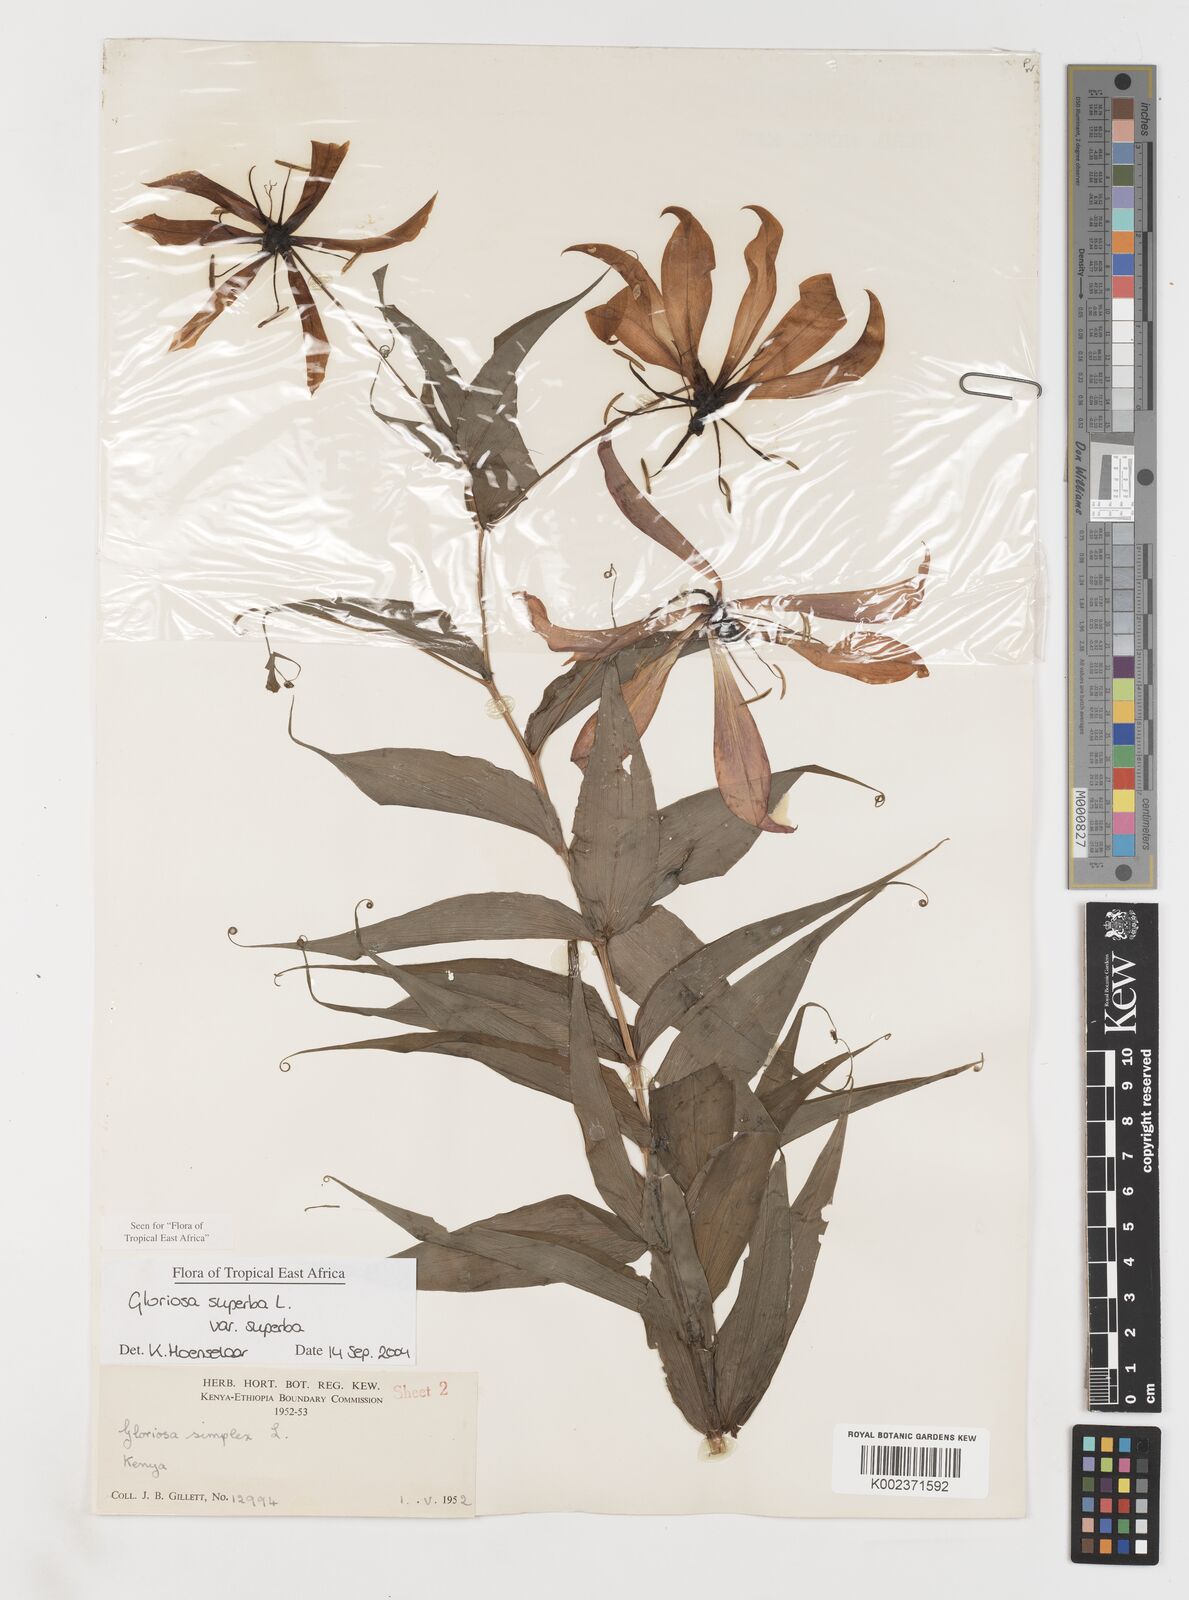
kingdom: Plantae
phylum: Tracheophyta
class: Liliopsida
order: Liliales
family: Colchicaceae
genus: Gloriosa
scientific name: Gloriosa simplex
